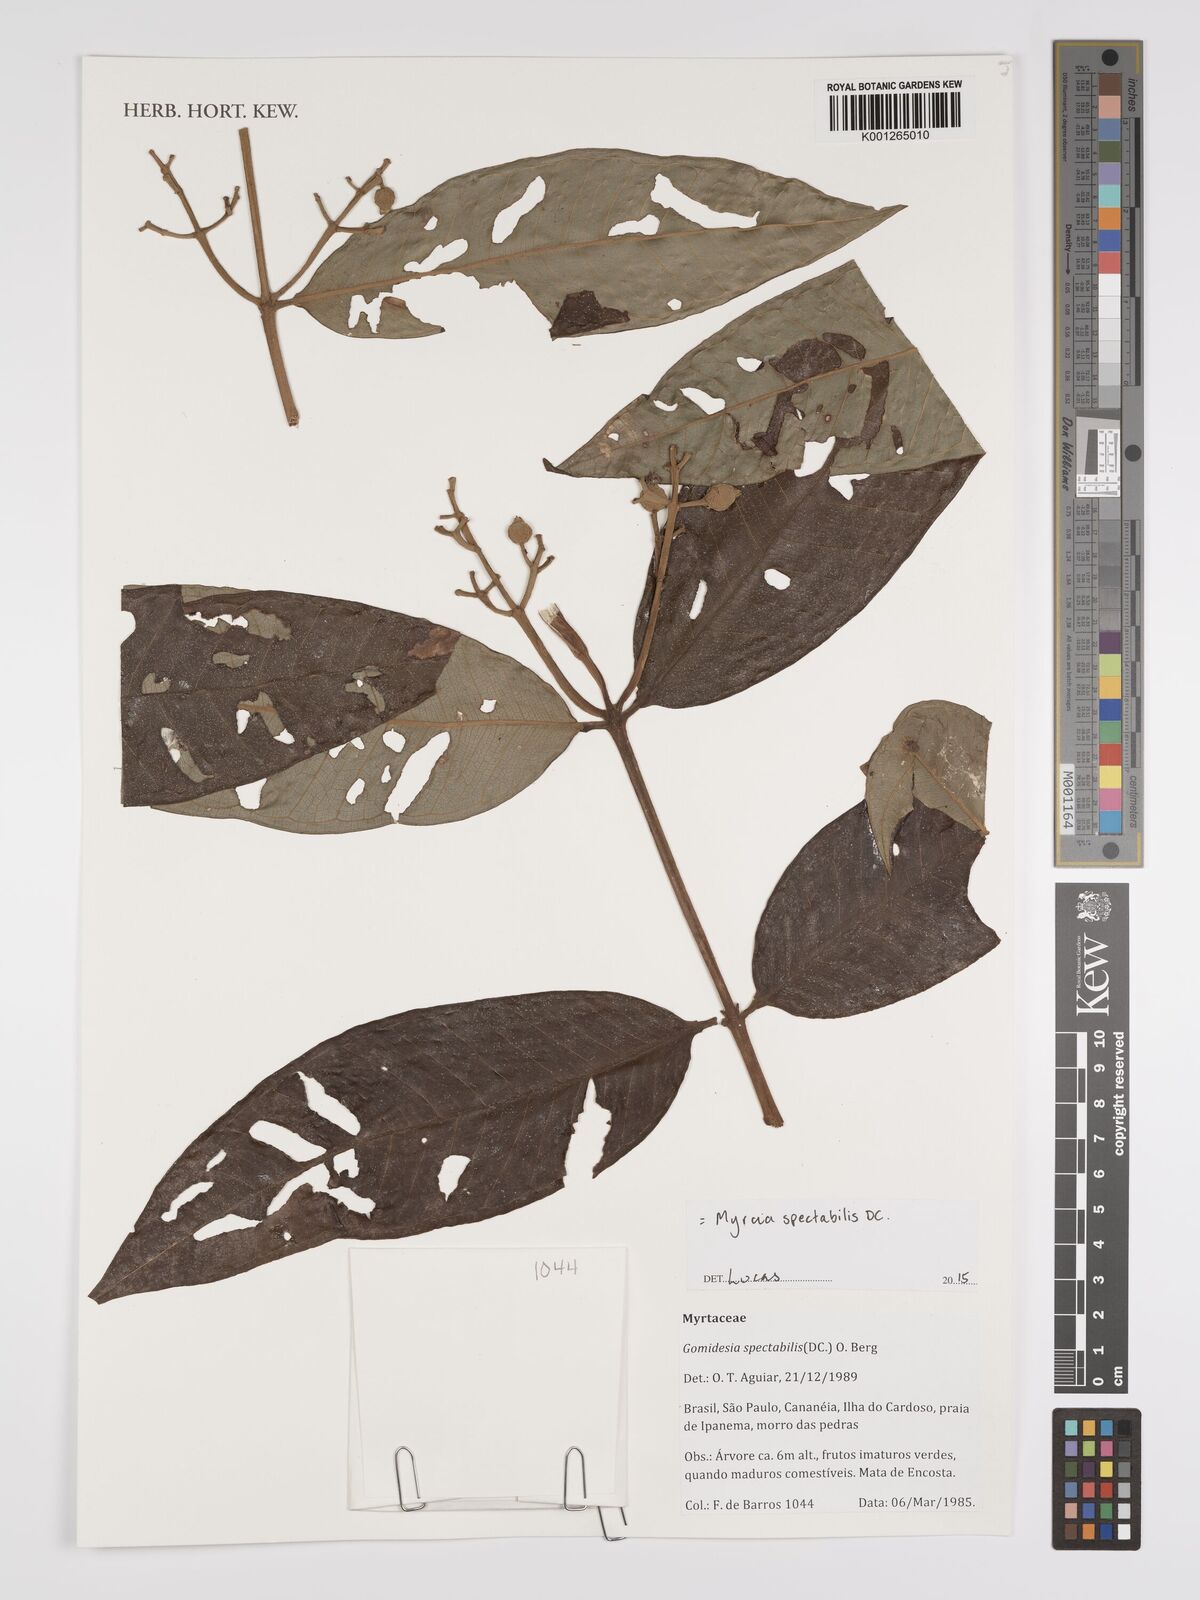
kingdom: Plantae
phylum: Tracheophyta
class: Magnoliopsida
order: Myrtales
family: Myrtaceae
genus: Myrcia
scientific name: Myrcia spectabilis
